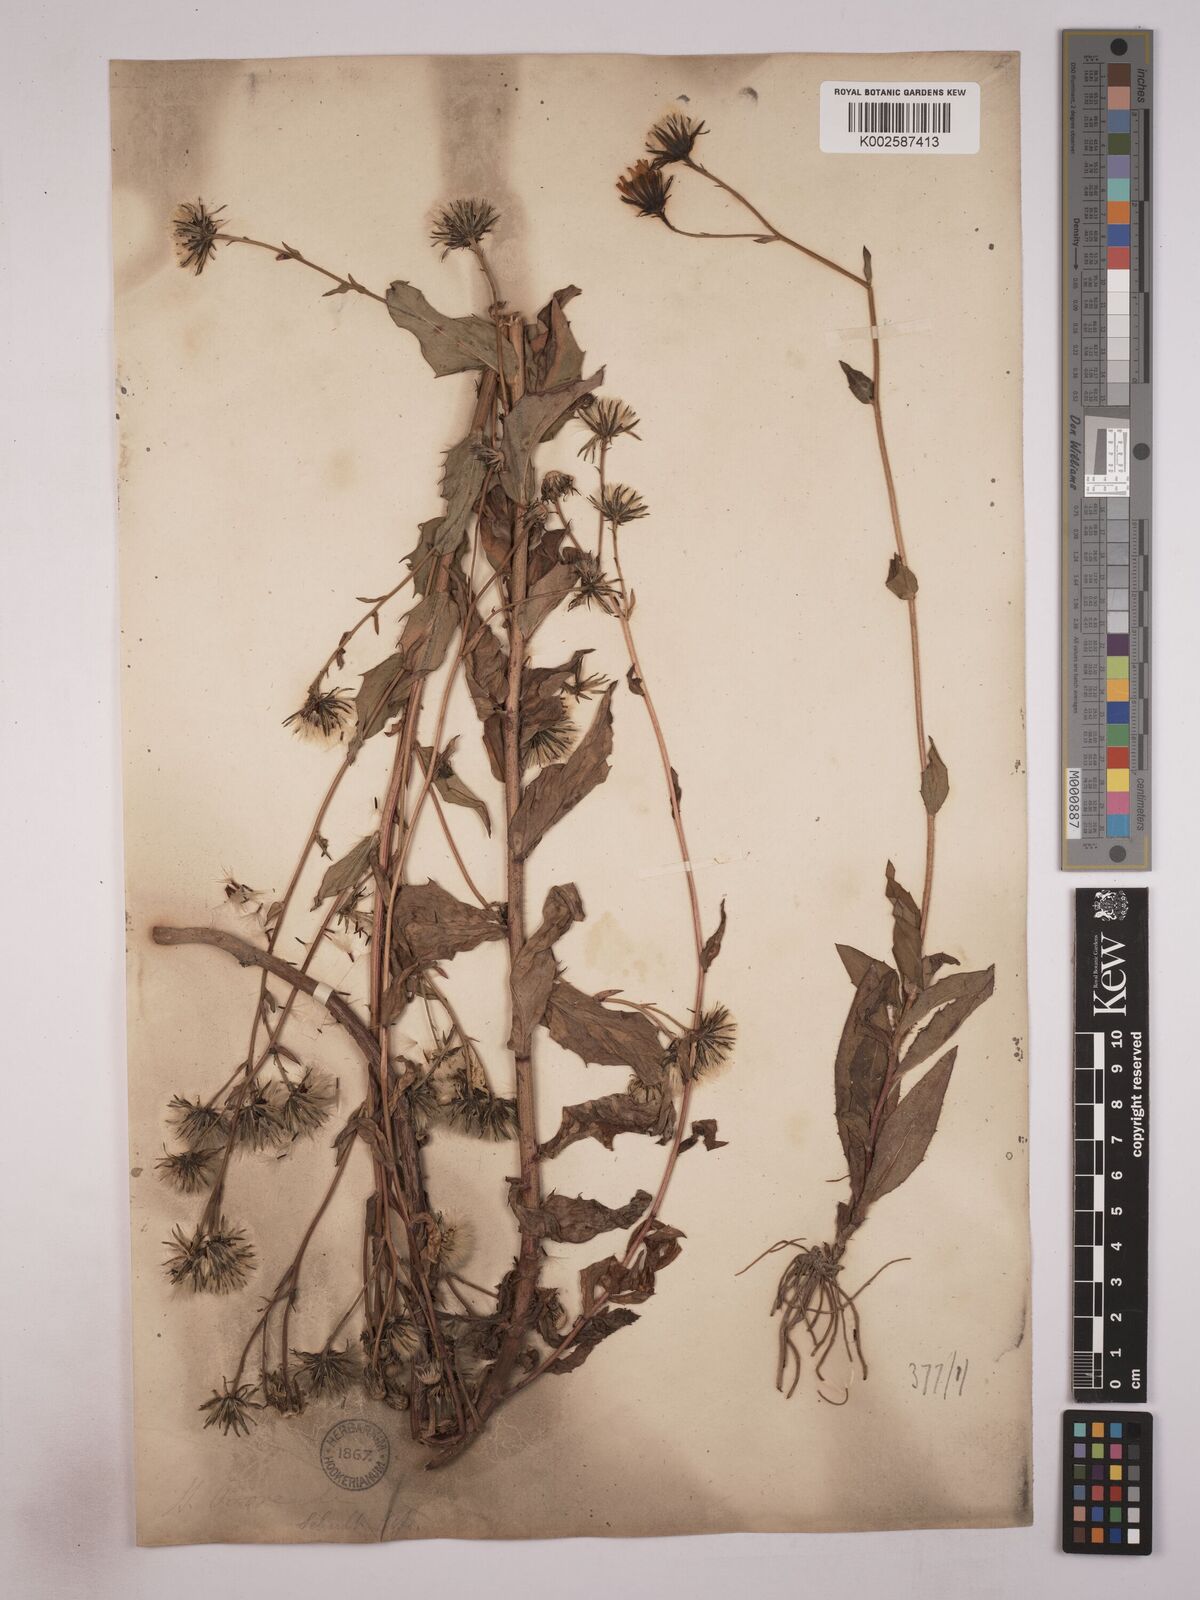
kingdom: Plantae
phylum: Tracheophyta
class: Magnoliopsida
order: Asterales
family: Asteraceae
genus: Hieracium
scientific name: Hieracium
